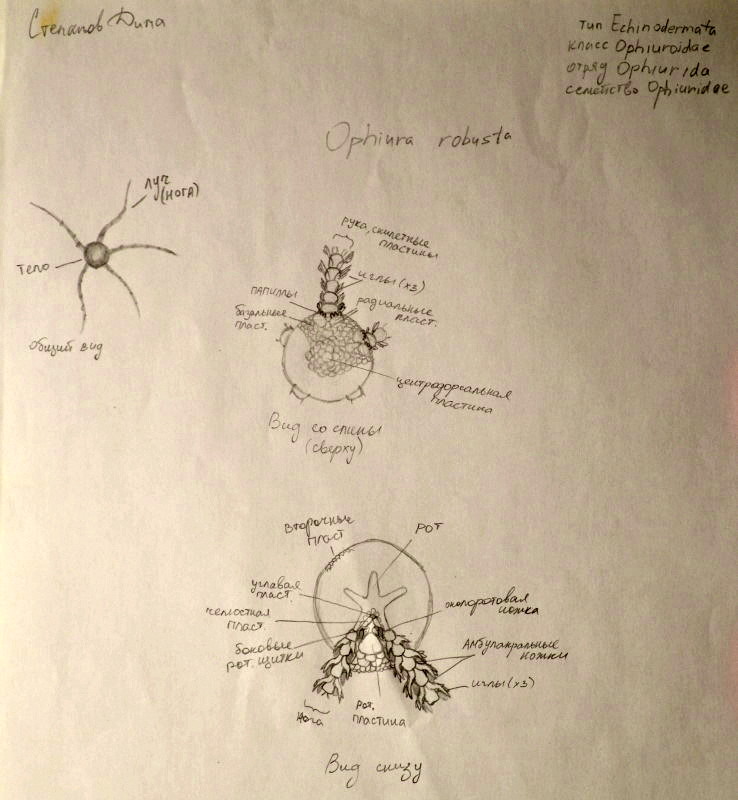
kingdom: Animalia
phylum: Echinodermata
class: Ophiuroidea
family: Ophiopyrgidae
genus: Stegophiura
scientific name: Stegophiura nodosa
